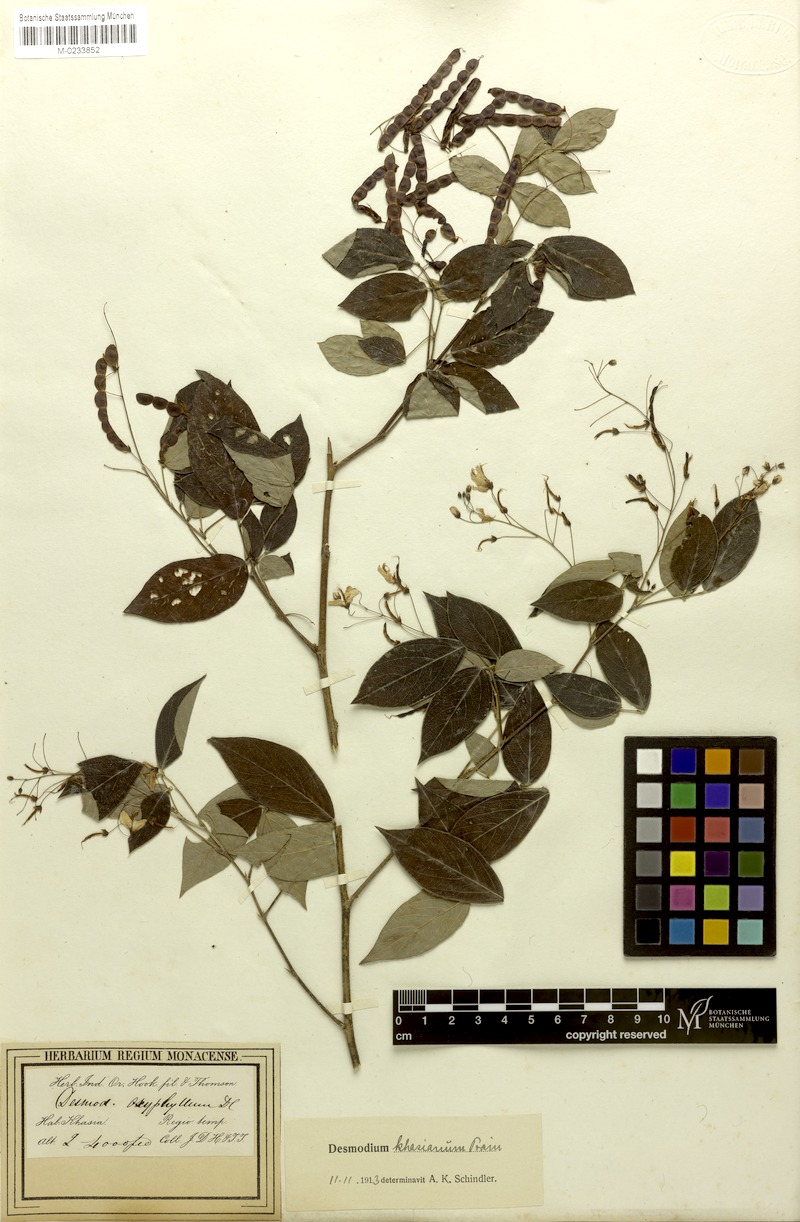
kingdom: Plantae
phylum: Tracheophyta
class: Magnoliopsida
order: Fabales
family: Fabaceae
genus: Ototropis
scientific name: Ototropis khasiana
